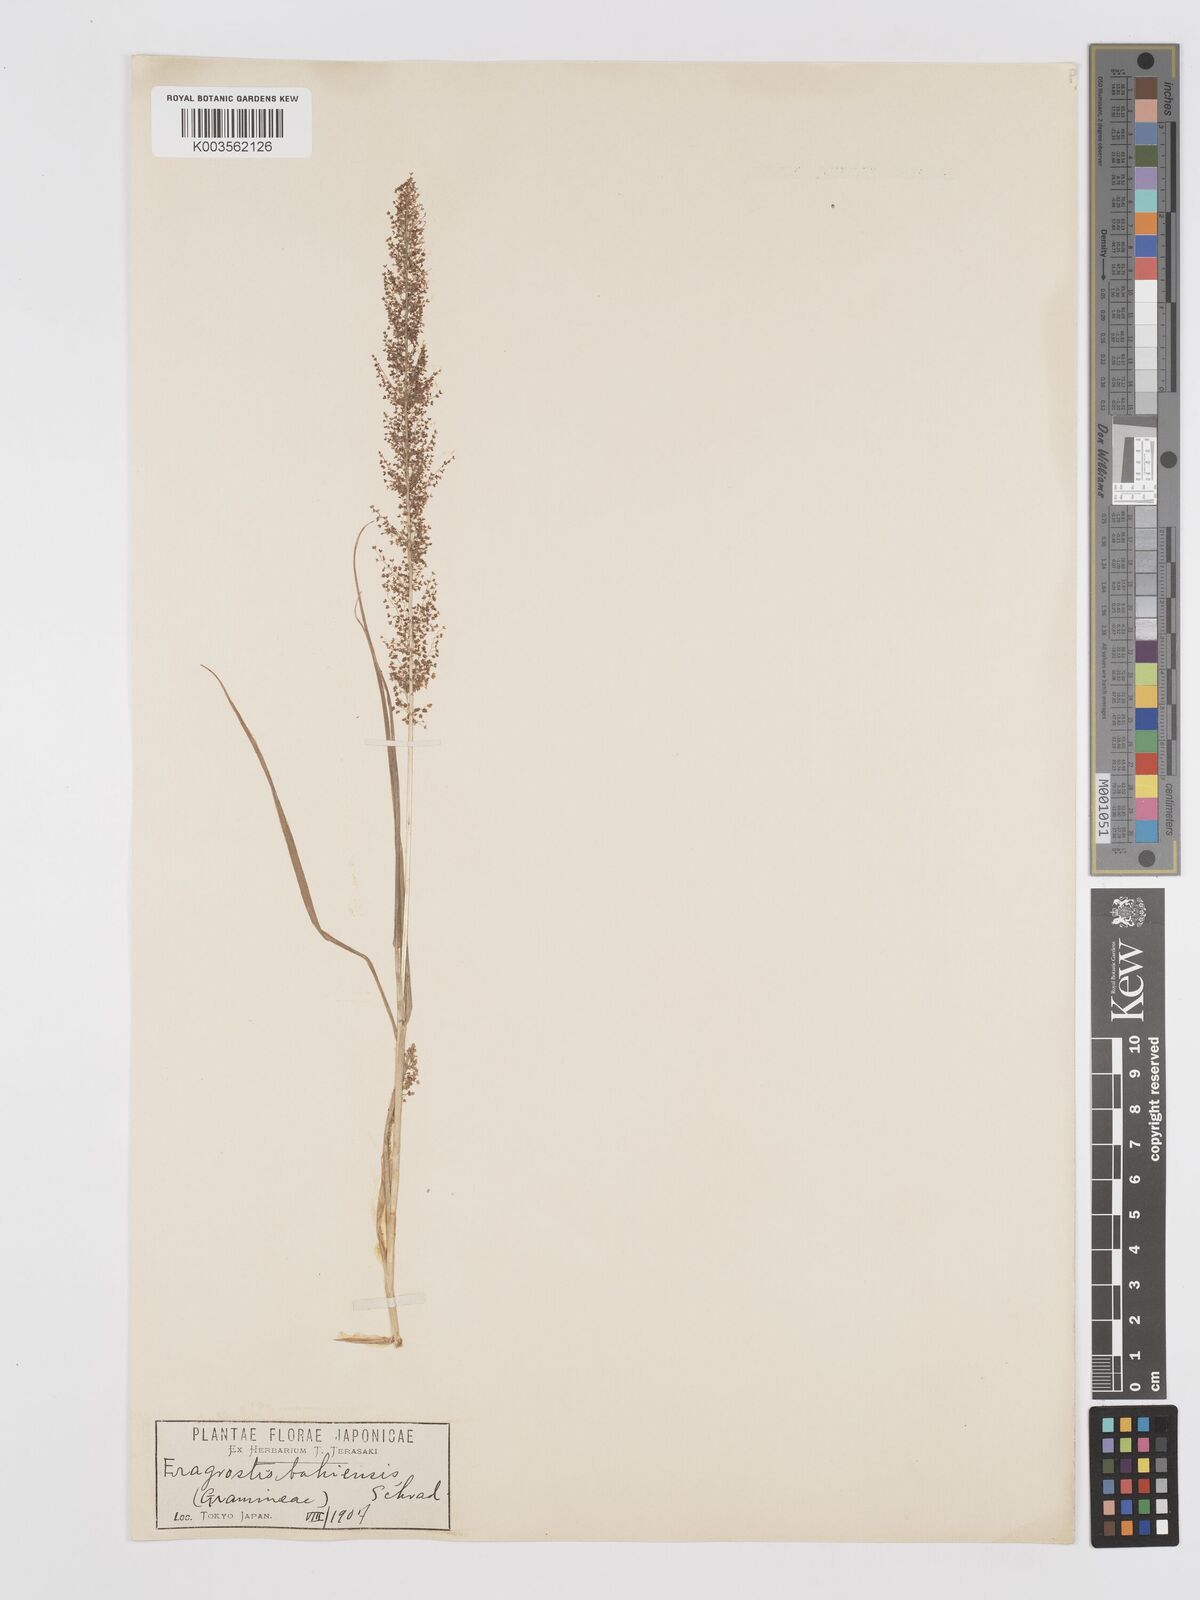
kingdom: Plantae
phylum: Tracheophyta
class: Liliopsida
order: Poales
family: Poaceae
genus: Eragrostis
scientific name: Eragrostis japonica
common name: Pond lovegrass
